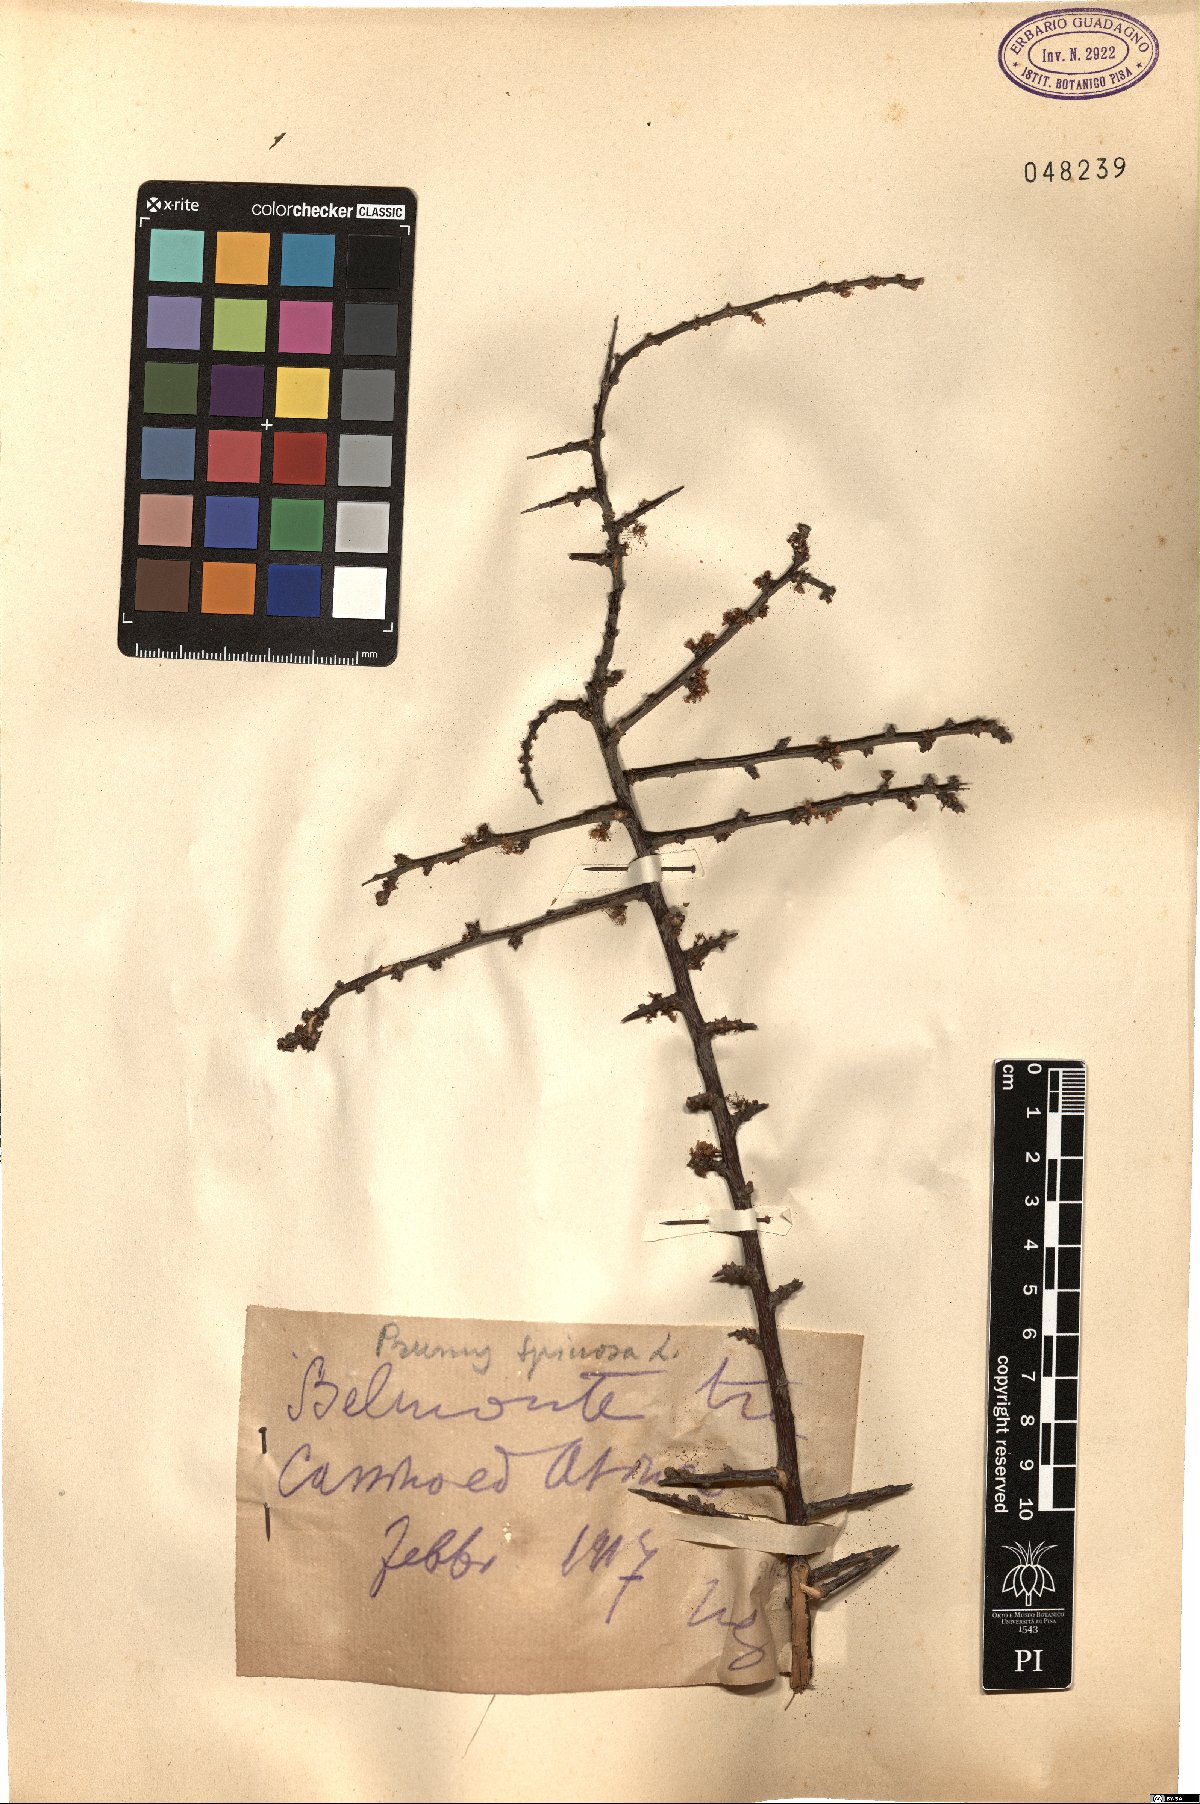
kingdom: Plantae
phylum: Tracheophyta
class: Magnoliopsida
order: Rosales
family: Rosaceae
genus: Prunus
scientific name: Prunus spinosa
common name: Blackthorn
